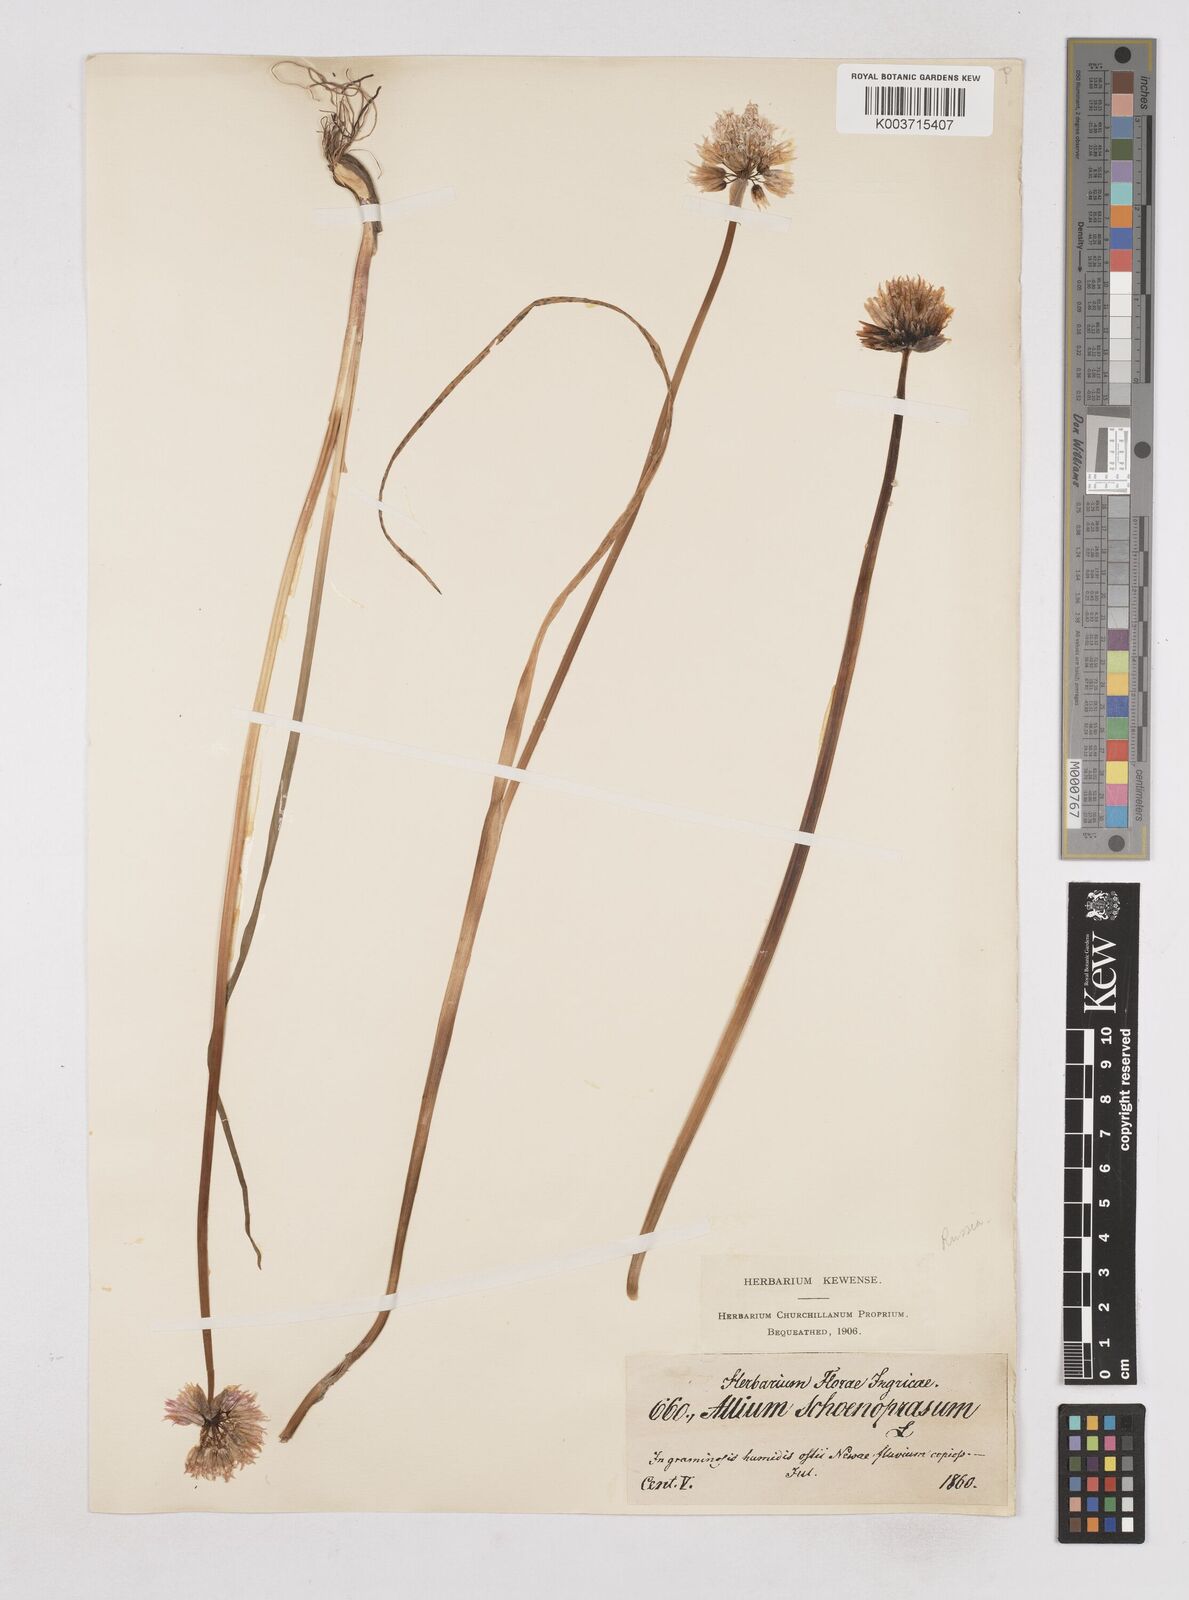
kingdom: Plantae
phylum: Tracheophyta
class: Liliopsida
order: Asparagales
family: Amaryllidaceae
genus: Allium
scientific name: Allium schoenoprasum
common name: Chives
